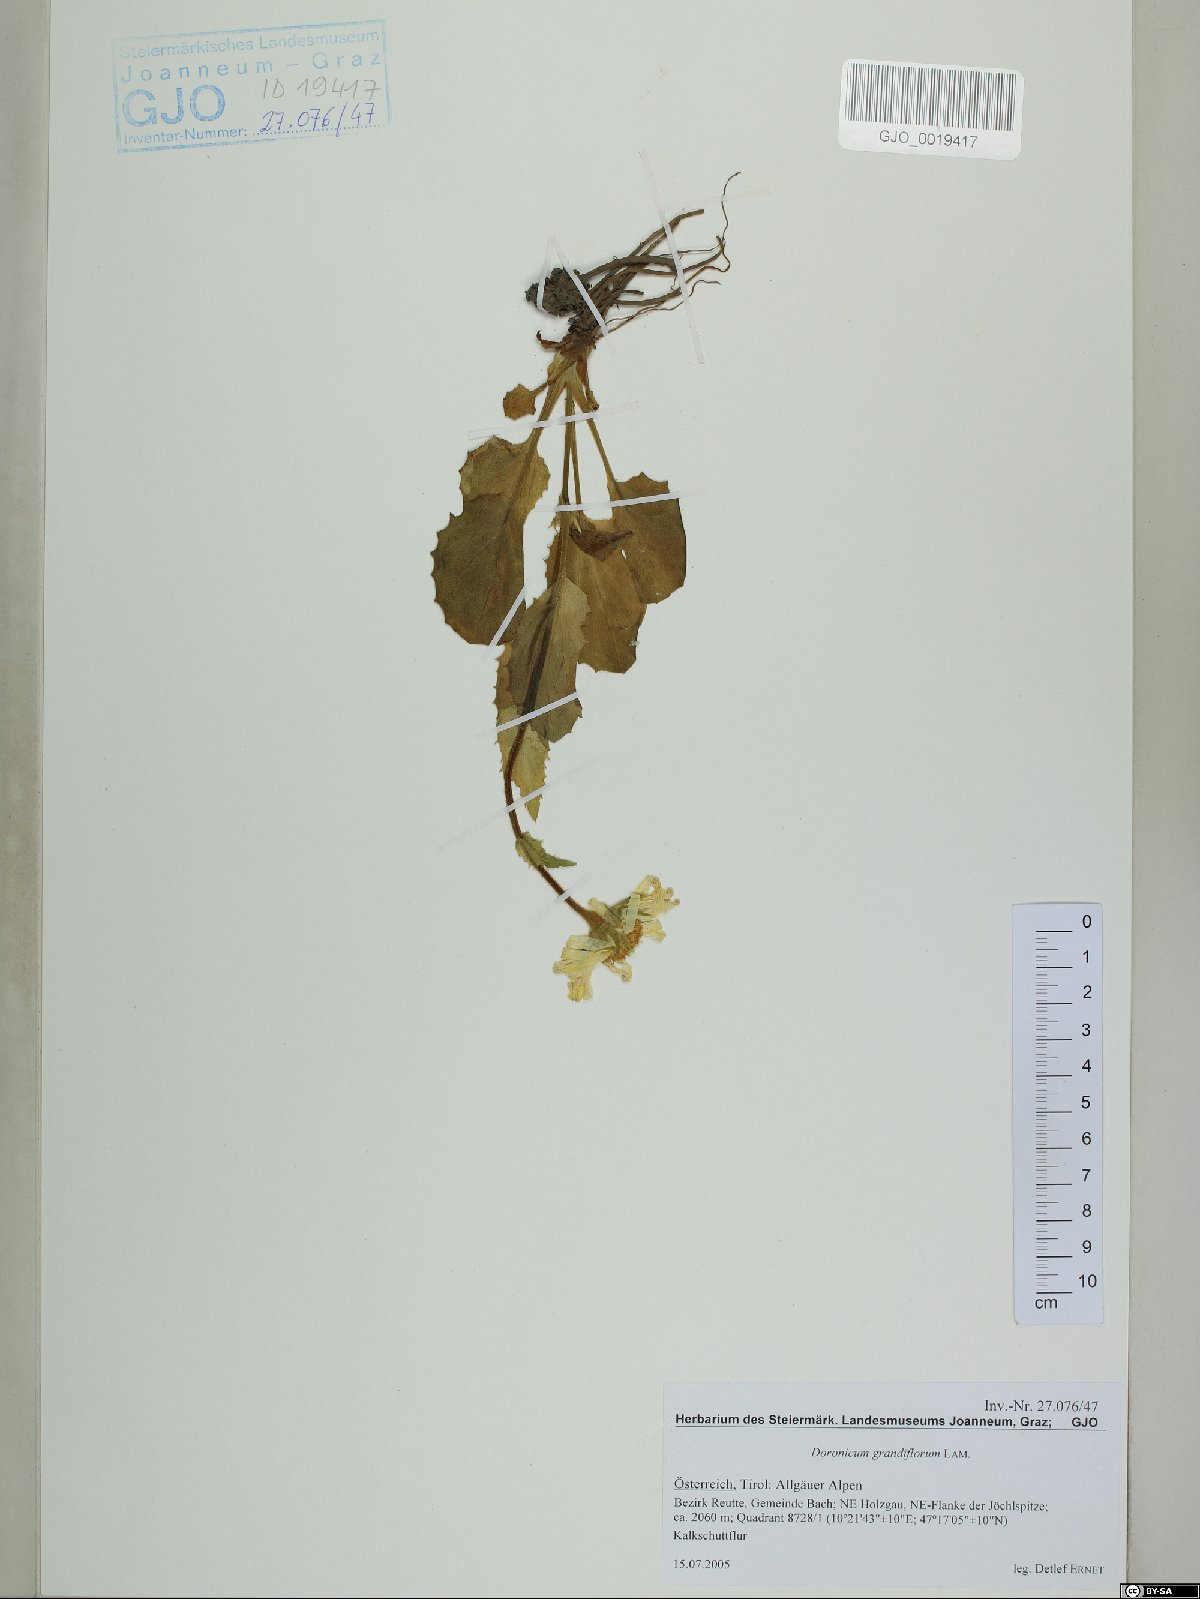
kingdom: Plantae
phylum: Tracheophyta
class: Magnoliopsida
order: Asterales
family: Asteraceae
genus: Doronicum
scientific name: Doronicum grandiflorum
